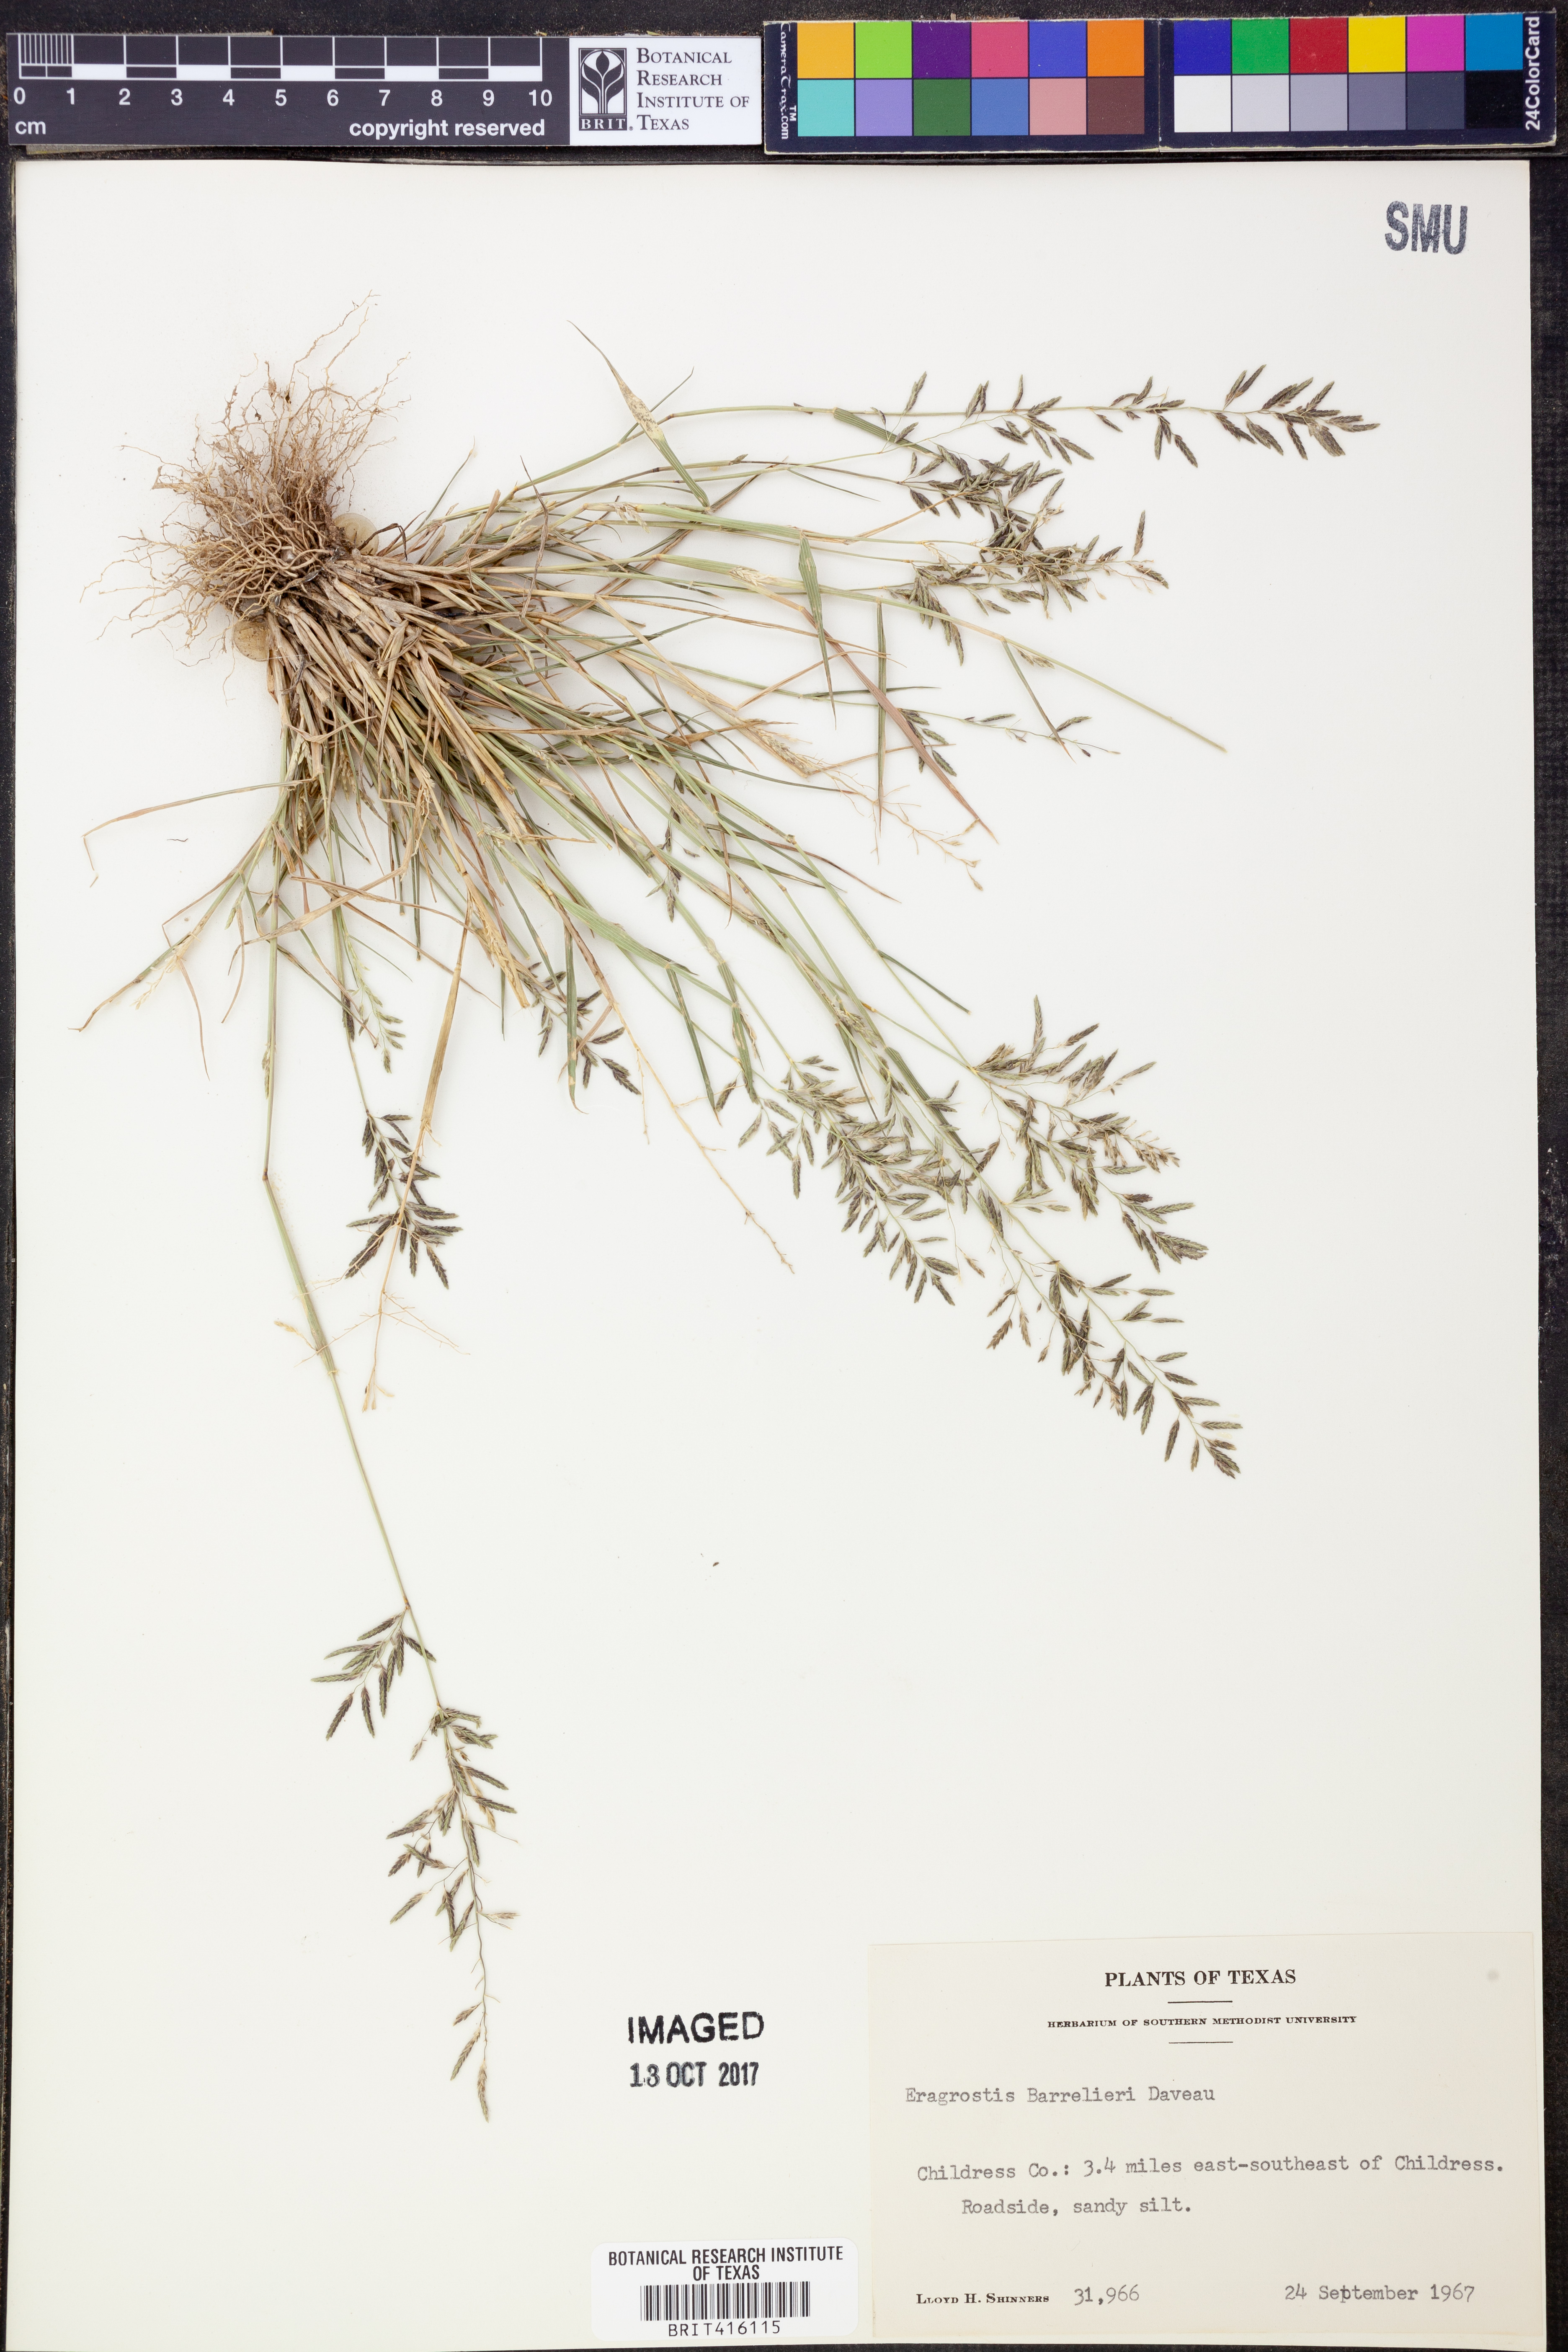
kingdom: Plantae
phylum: Tracheophyta
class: Liliopsida
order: Poales
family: Poaceae
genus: Eragrostis
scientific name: Eragrostis barrelieri
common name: Mediterranean lovegrass
